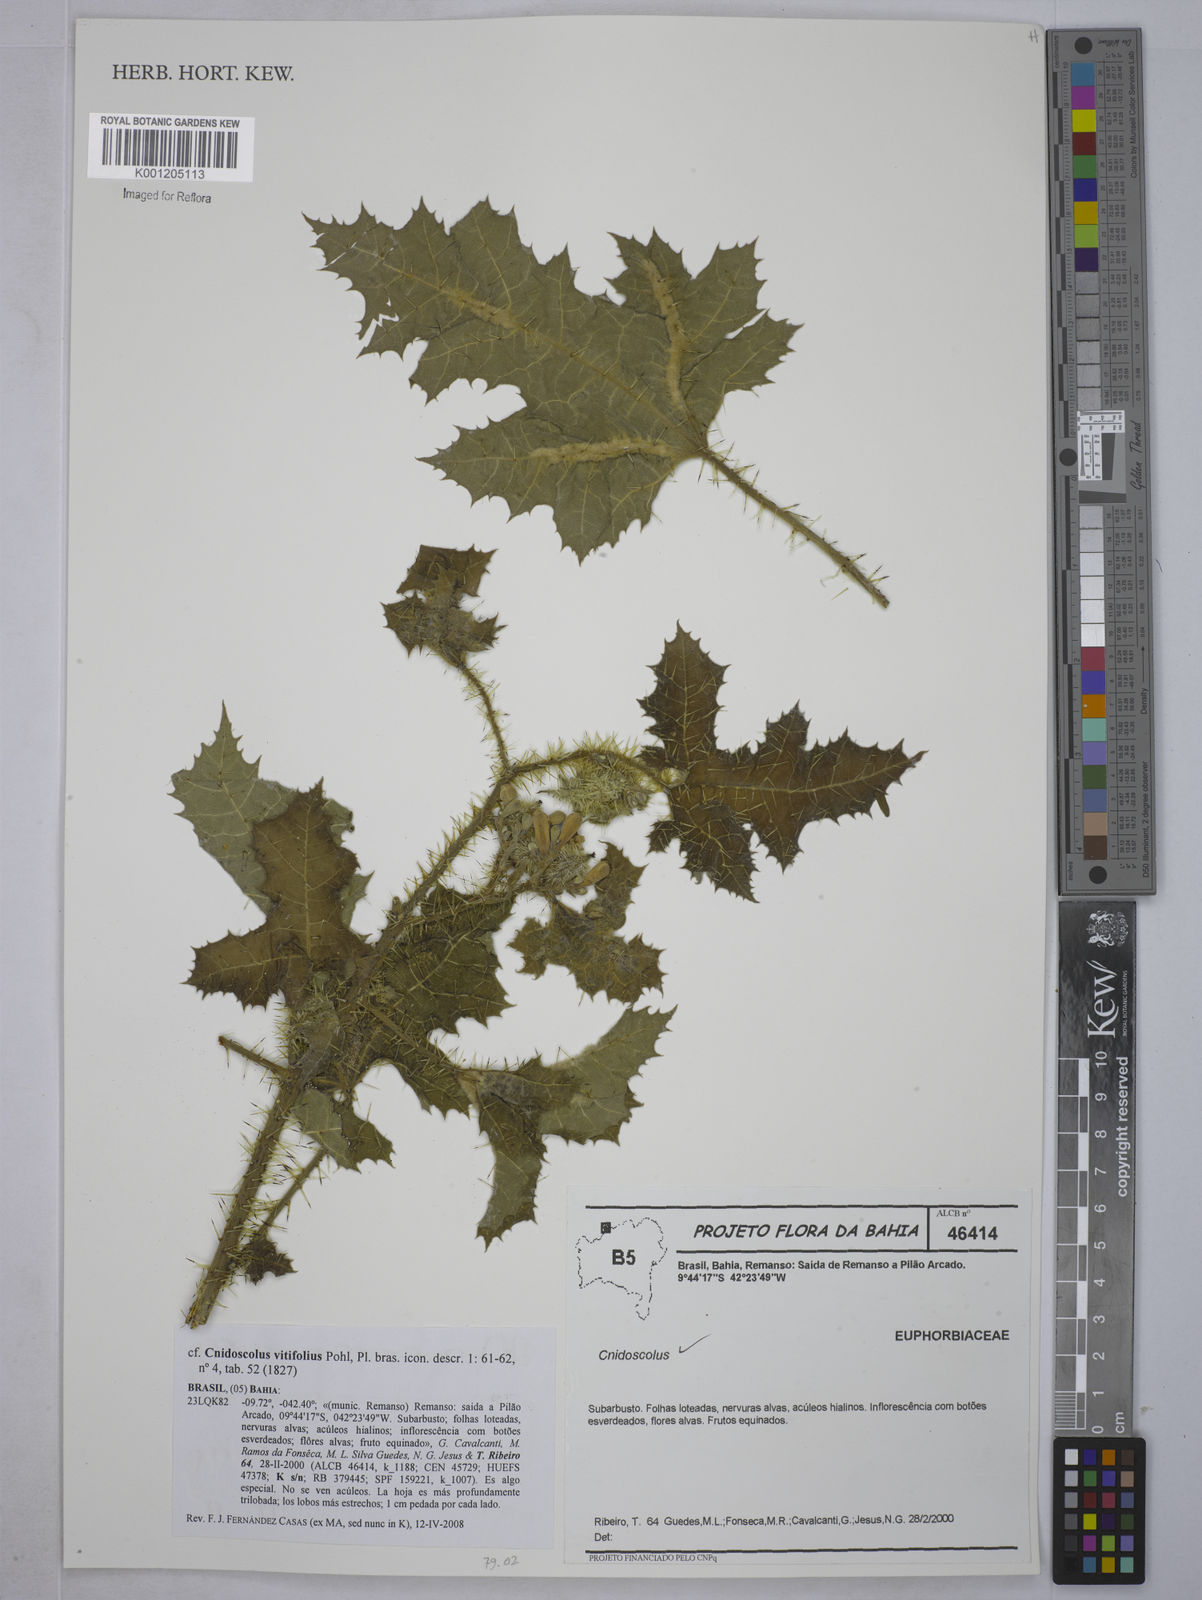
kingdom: Plantae
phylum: Tracheophyta
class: Magnoliopsida
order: Malpighiales
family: Euphorbiaceae
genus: Cnidoscolus
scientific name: Cnidoscolus vitifolius
